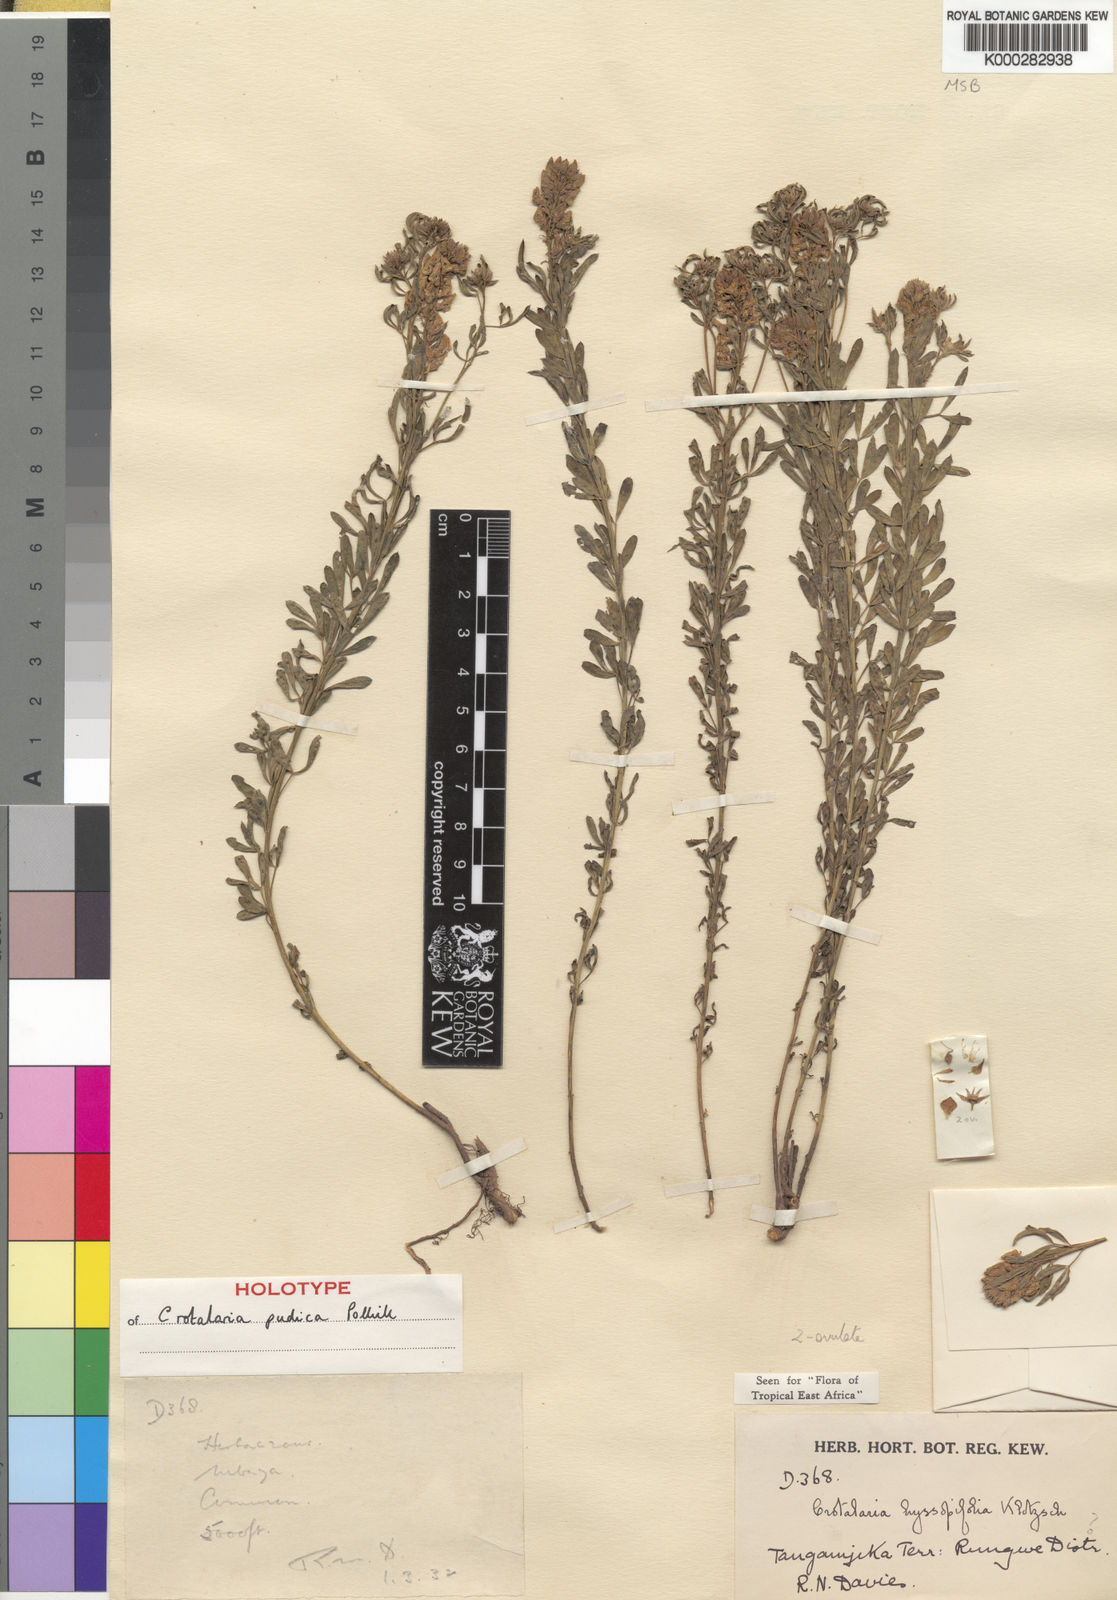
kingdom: Plantae
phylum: Tracheophyta
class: Magnoliopsida
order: Fabales
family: Fabaceae
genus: Crotalaria
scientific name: Crotalaria pudica
